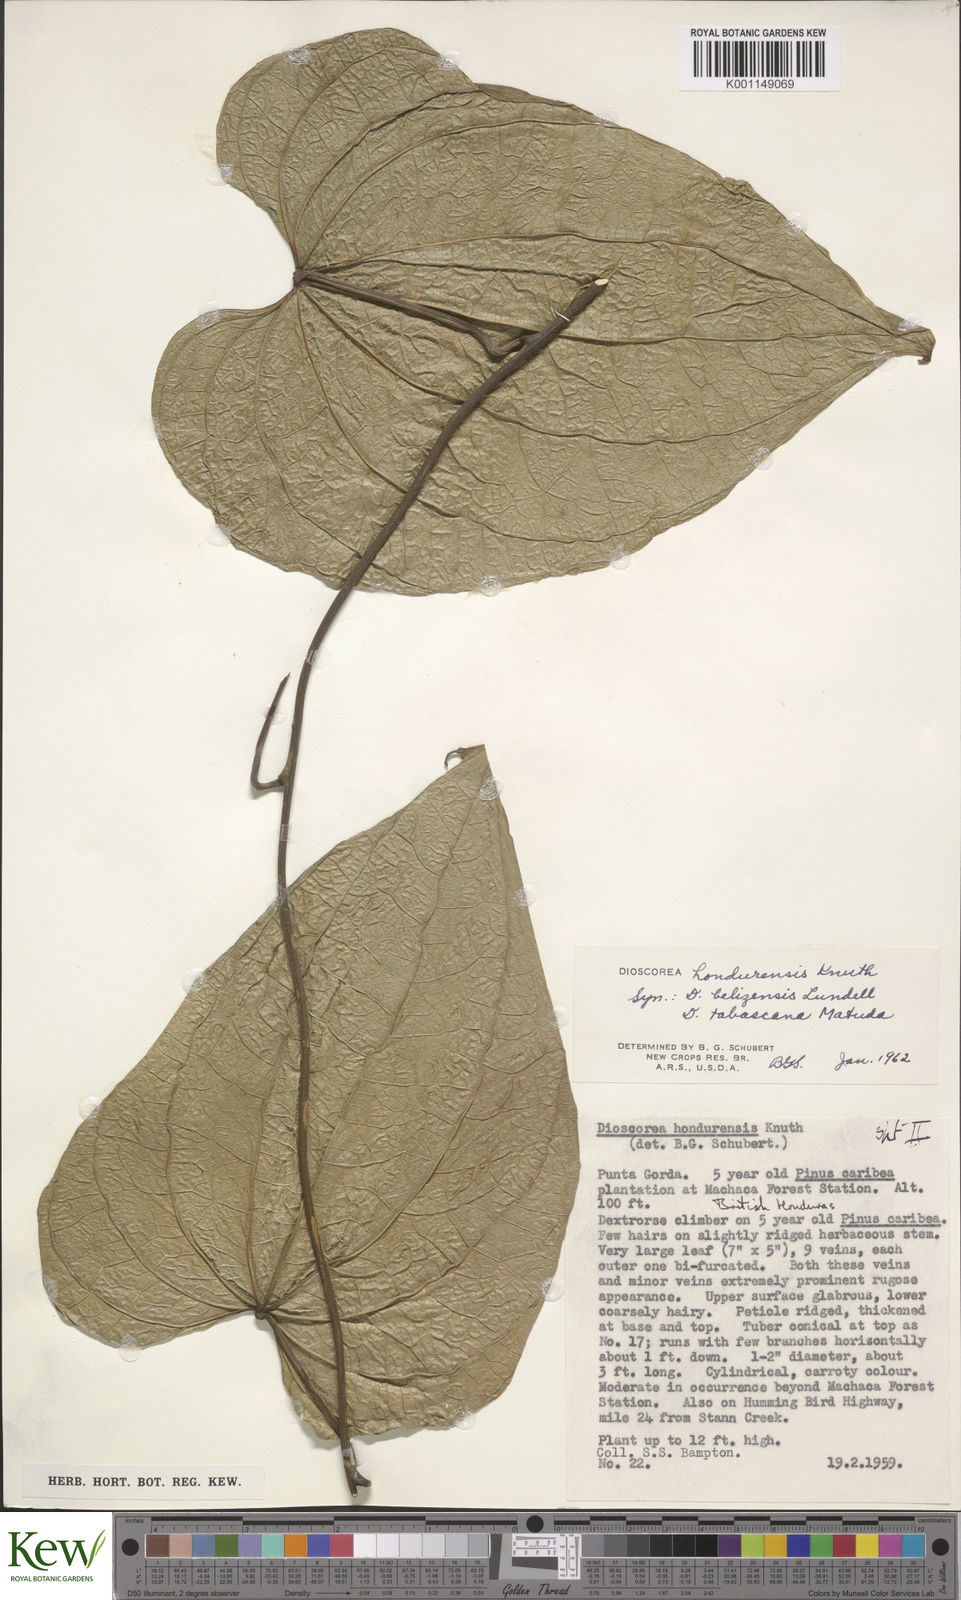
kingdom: Plantae
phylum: Tracheophyta
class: Liliopsida
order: Dioscoreales
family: Dioscoreaceae
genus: Dioscorea
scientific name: Dioscorea hondurensis
